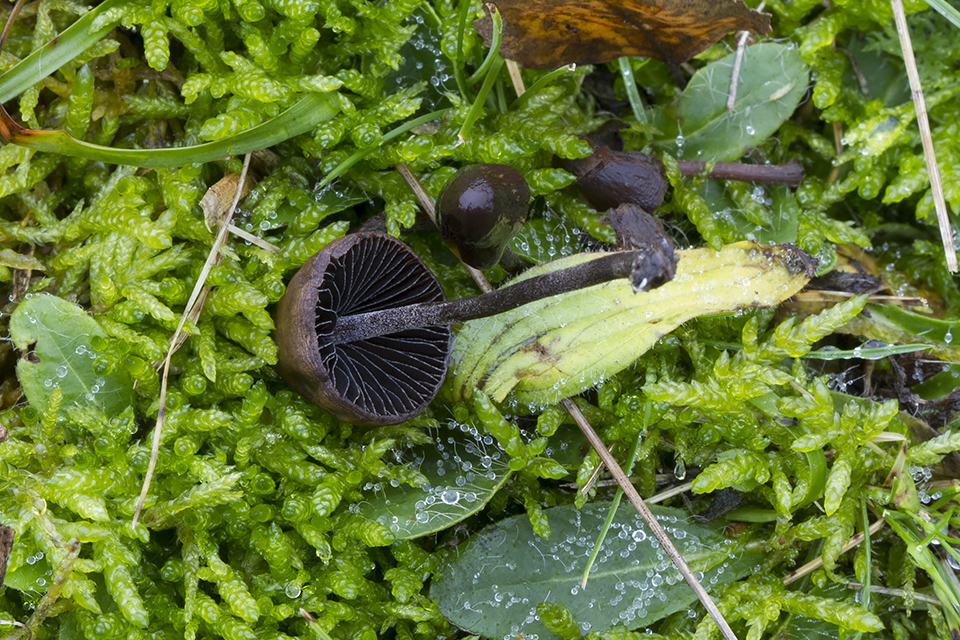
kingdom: Fungi
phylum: Basidiomycota
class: Agaricomycetes
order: Agaricales
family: Bolbitiaceae
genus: Panaeolus
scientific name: Panaeolus acuminatus
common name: høj glanshat
